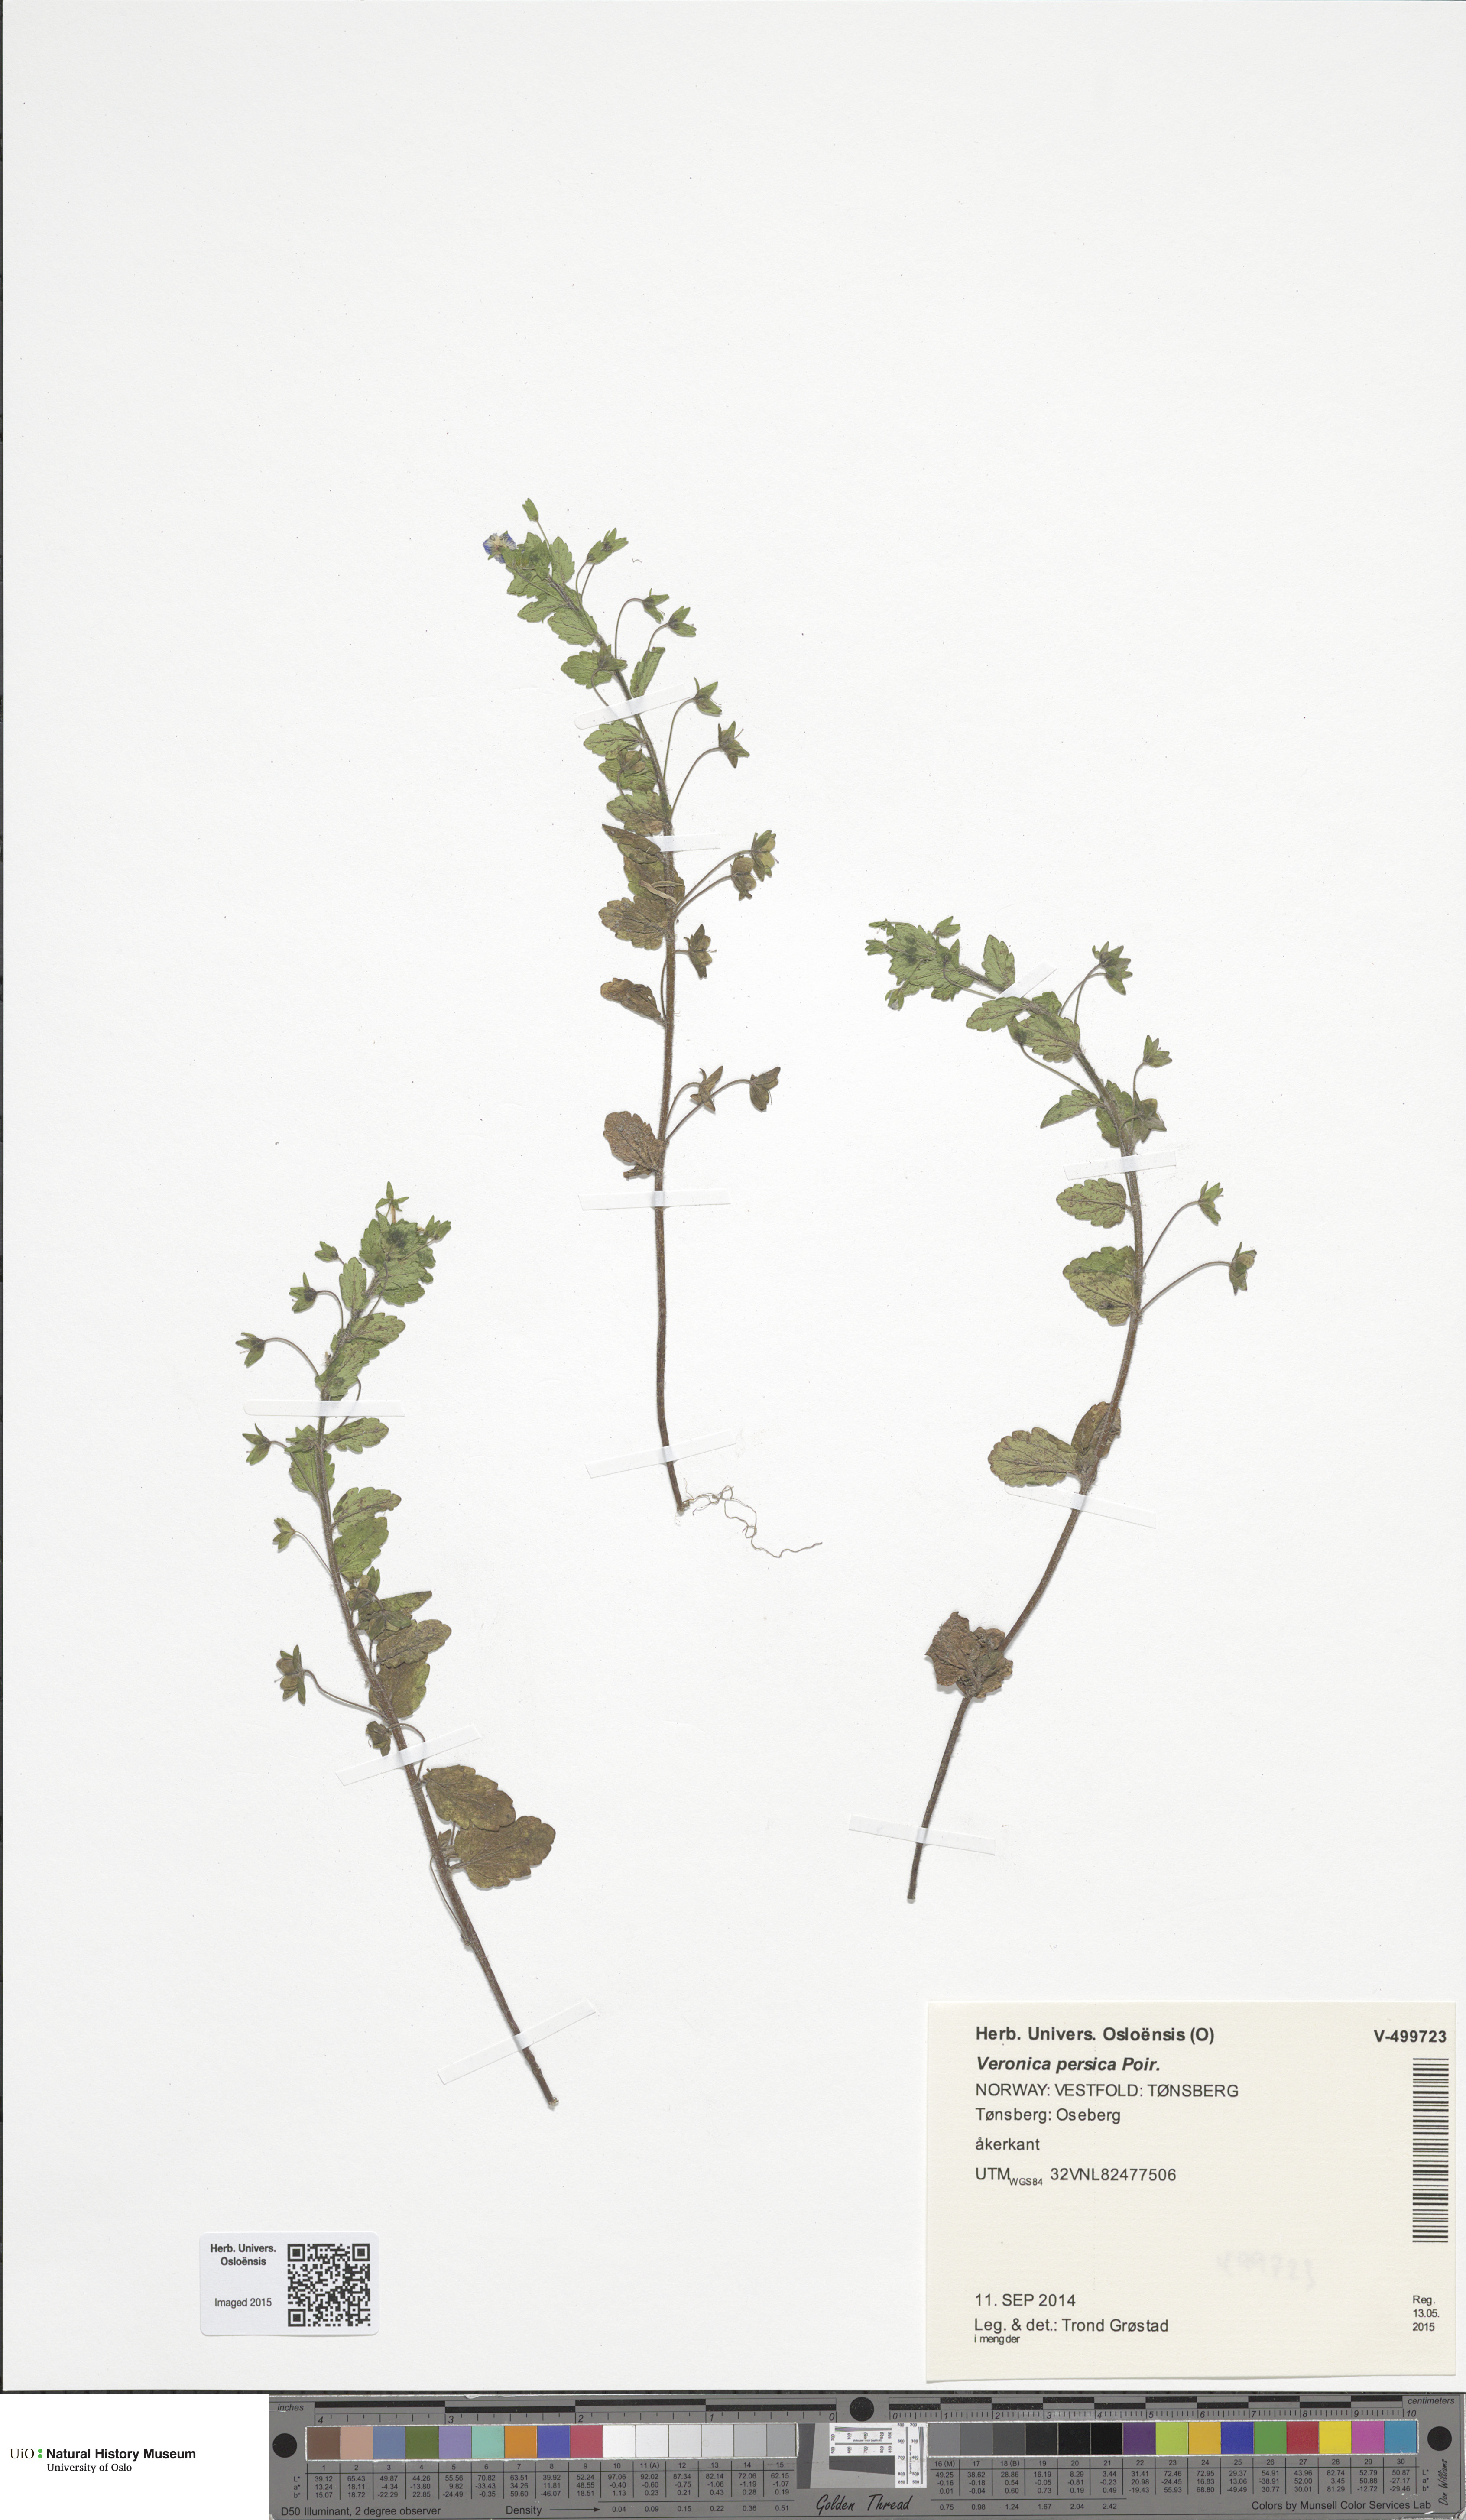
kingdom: Plantae
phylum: Tracheophyta
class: Magnoliopsida
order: Lamiales
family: Plantaginaceae
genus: Veronica
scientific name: Veronica persica
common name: Common field-speedwell
